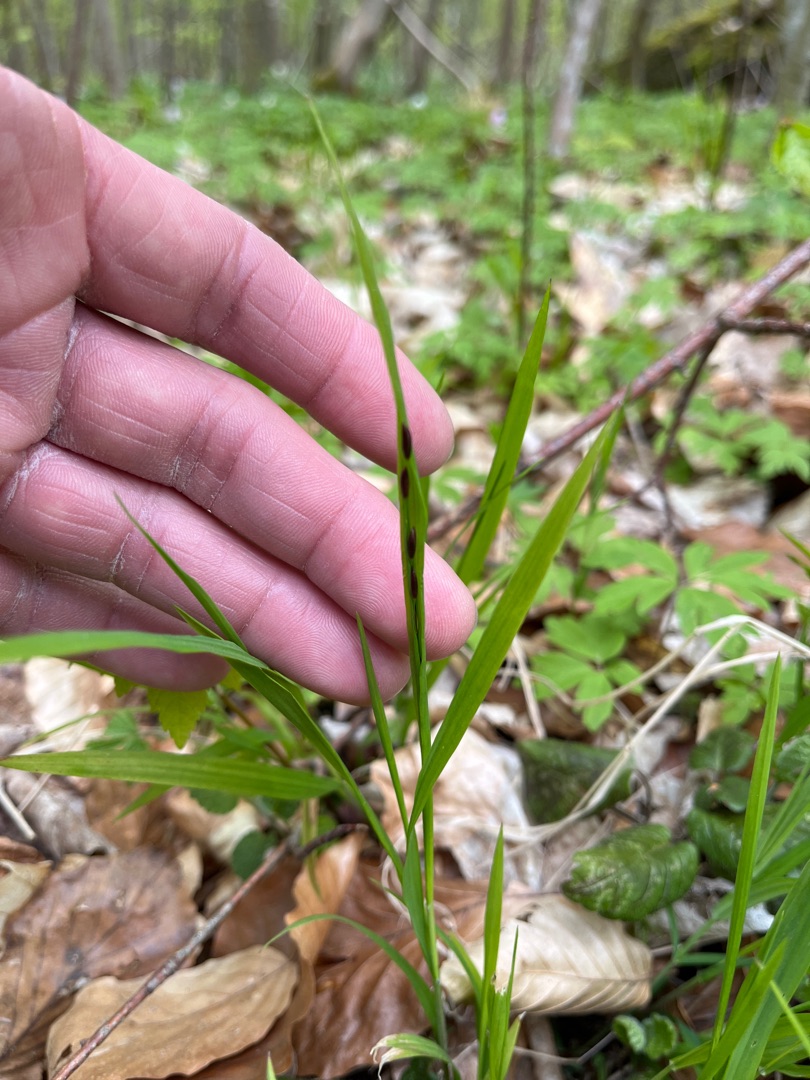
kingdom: Plantae
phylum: Tracheophyta
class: Liliopsida
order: Poales
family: Poaceae
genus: Melica
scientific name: Melica uniflora
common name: Enblomstret flitteraks
